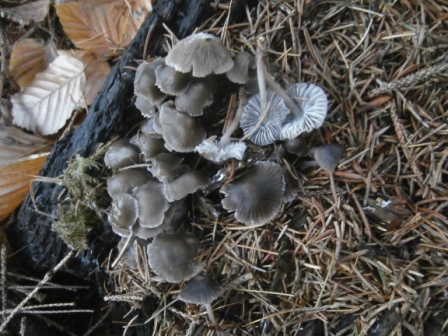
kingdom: Fungi
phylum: Basidiomycota
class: Agaricomycetes
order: Agaricales
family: Mycenaceae
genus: Mycena
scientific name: Mycena inclinata
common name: nikkende huesvamp
